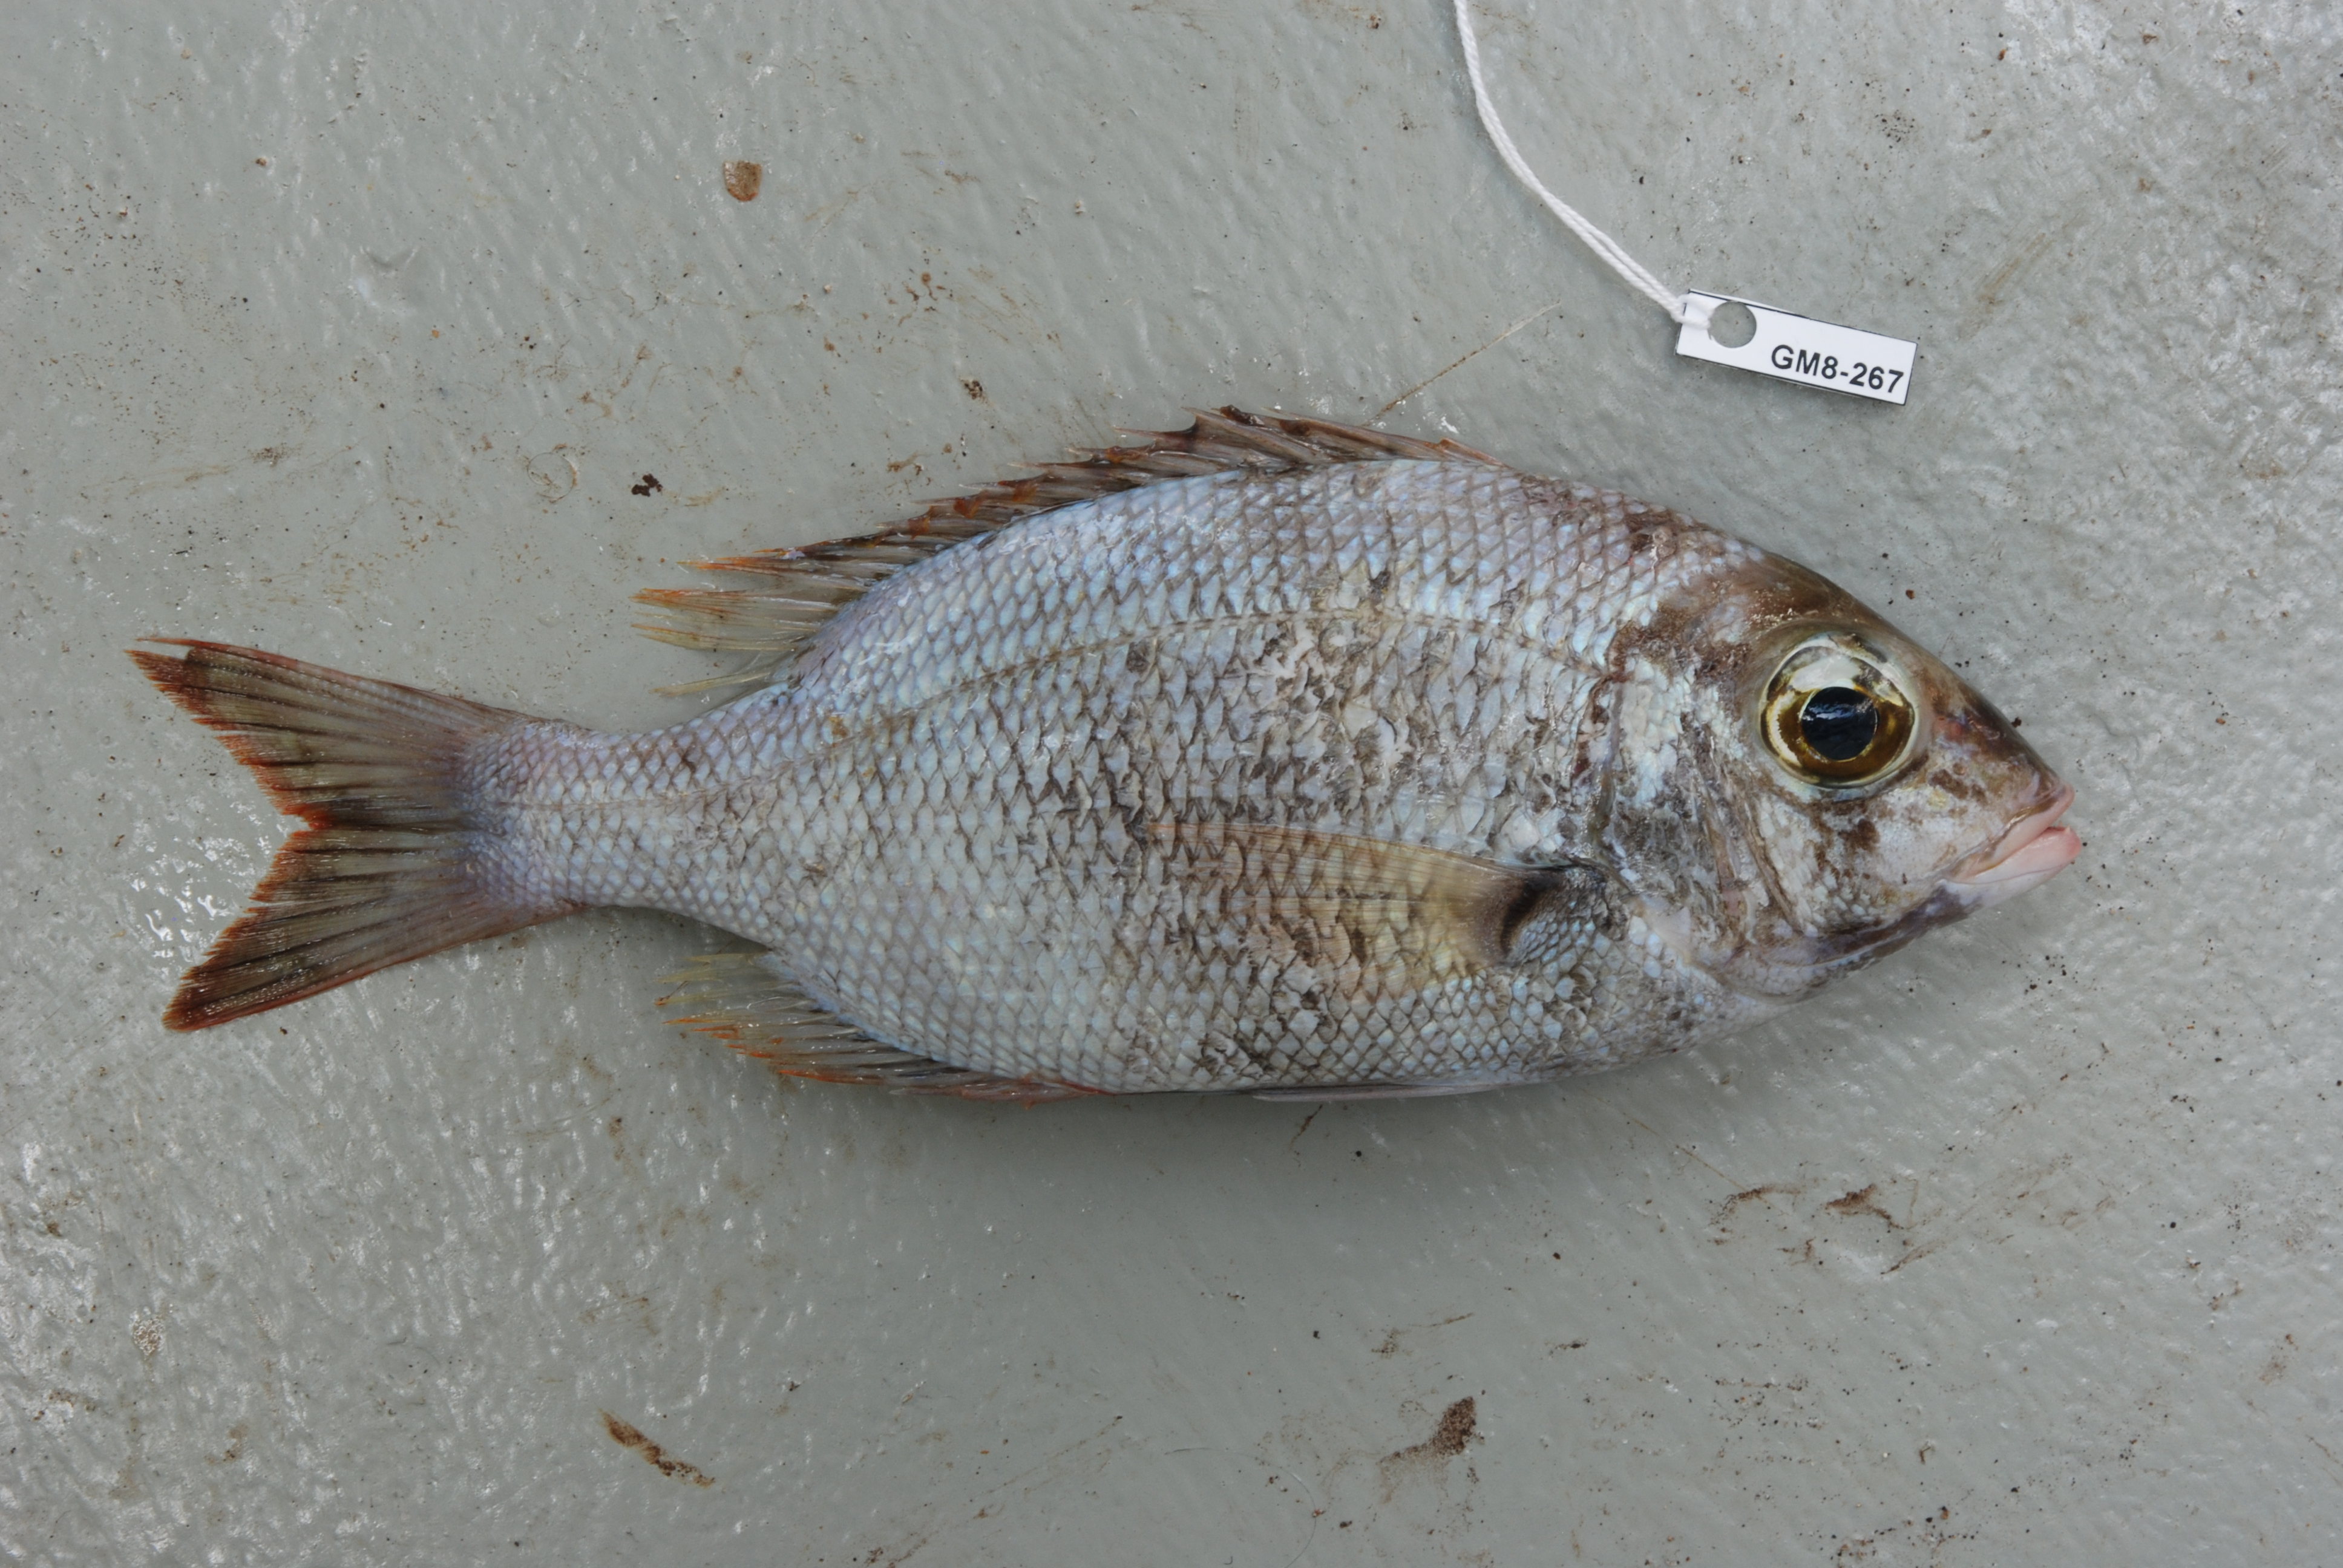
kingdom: Animalia
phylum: Chordata
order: Perciformes
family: Lethrinidae
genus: Gymnocranius
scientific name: Gymnocranius griseus
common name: Grey emperor
